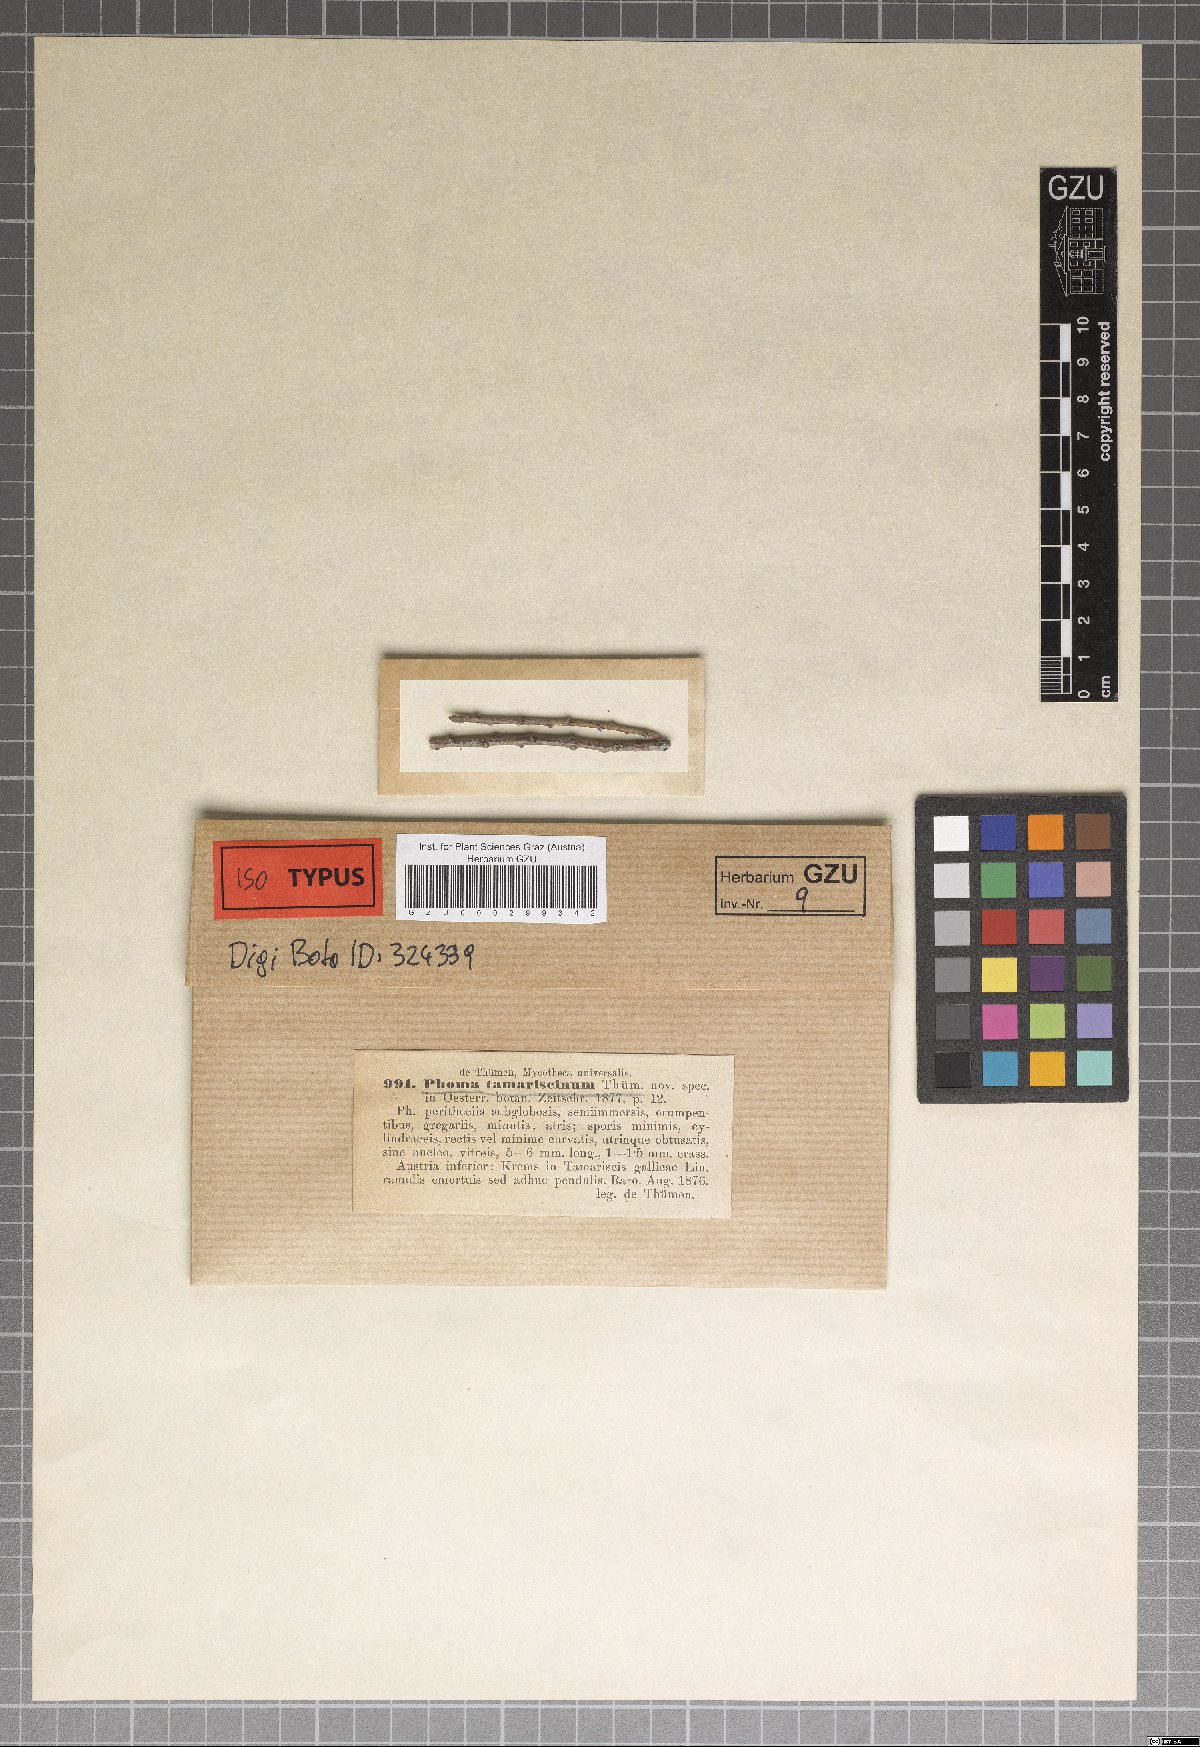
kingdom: Fungi
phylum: Ascomycota
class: Dothideomycetes
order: Pleosporales
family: Didymellaceae
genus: Phoma
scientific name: Phoma tamaricina
